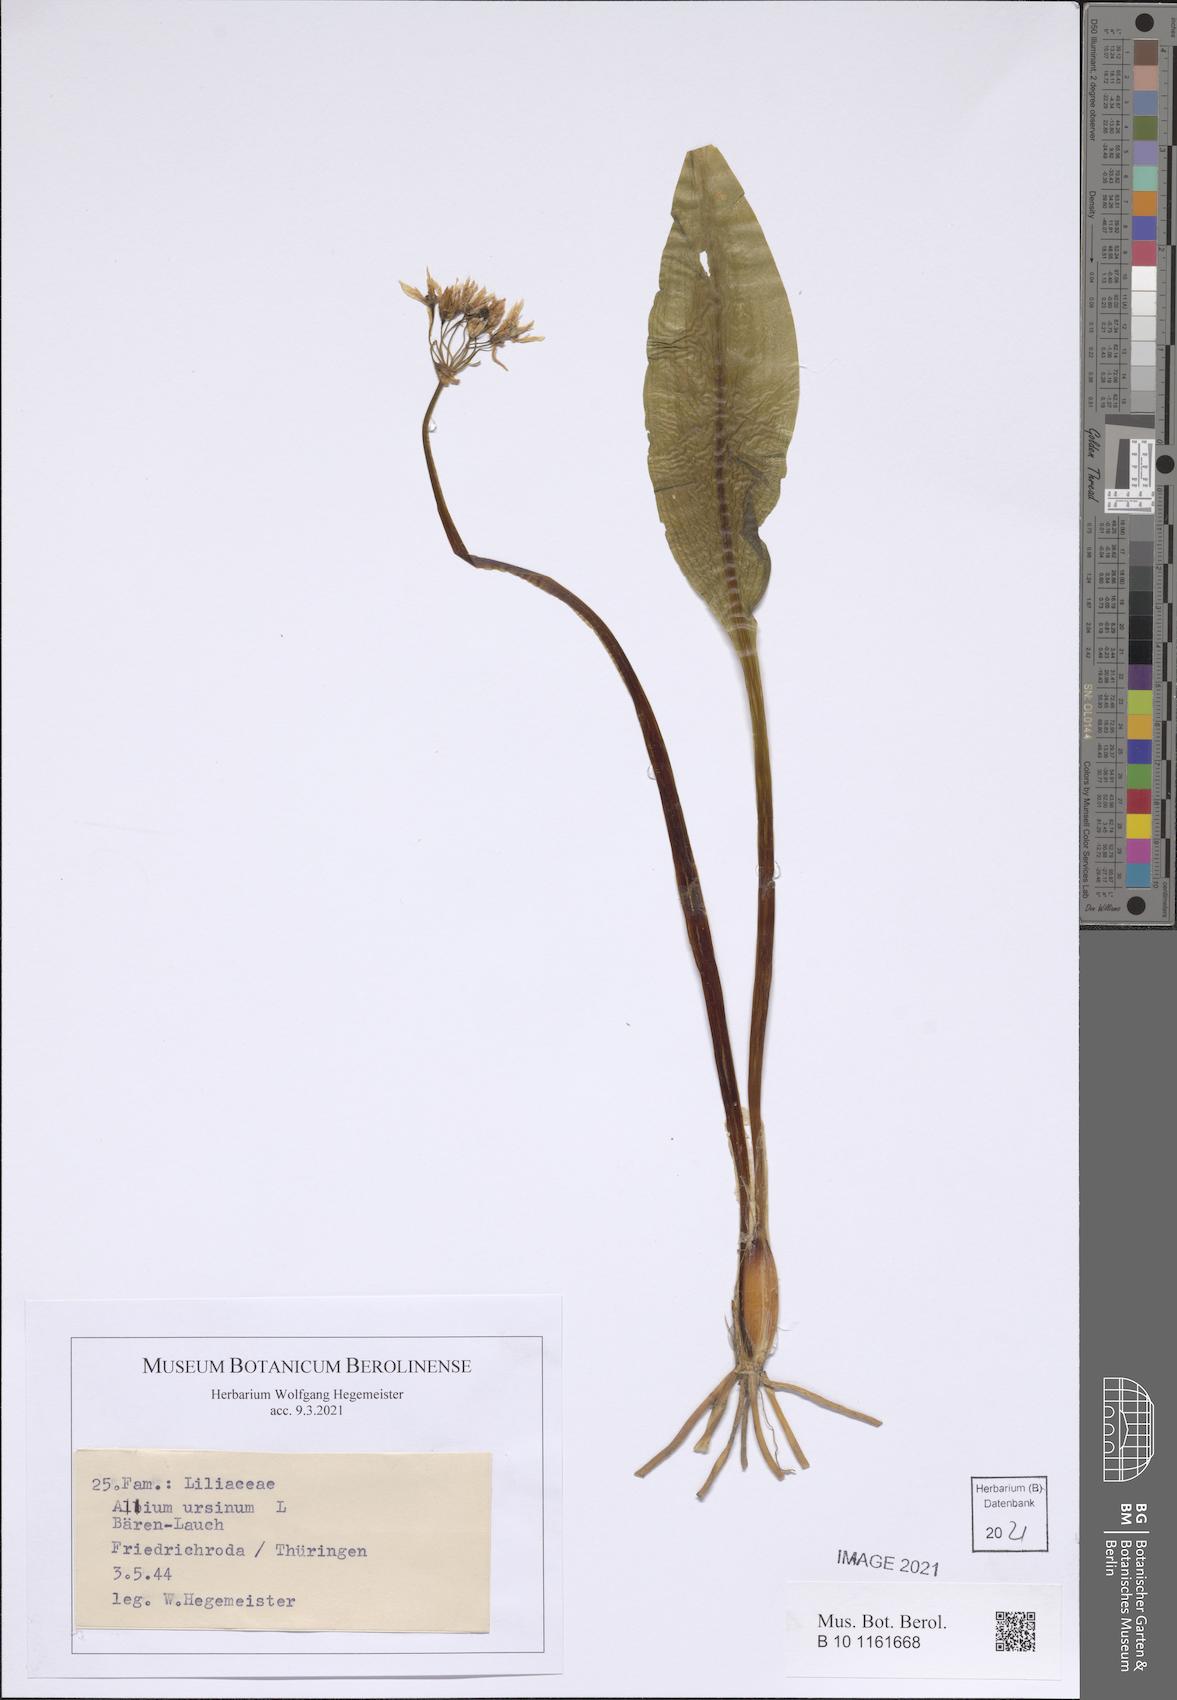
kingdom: Plantae
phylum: Tracheophyta
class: Liliopsida
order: Asparagales
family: Amaryllidaceae
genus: Allium
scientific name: Allium ursinum
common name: Ramsons
